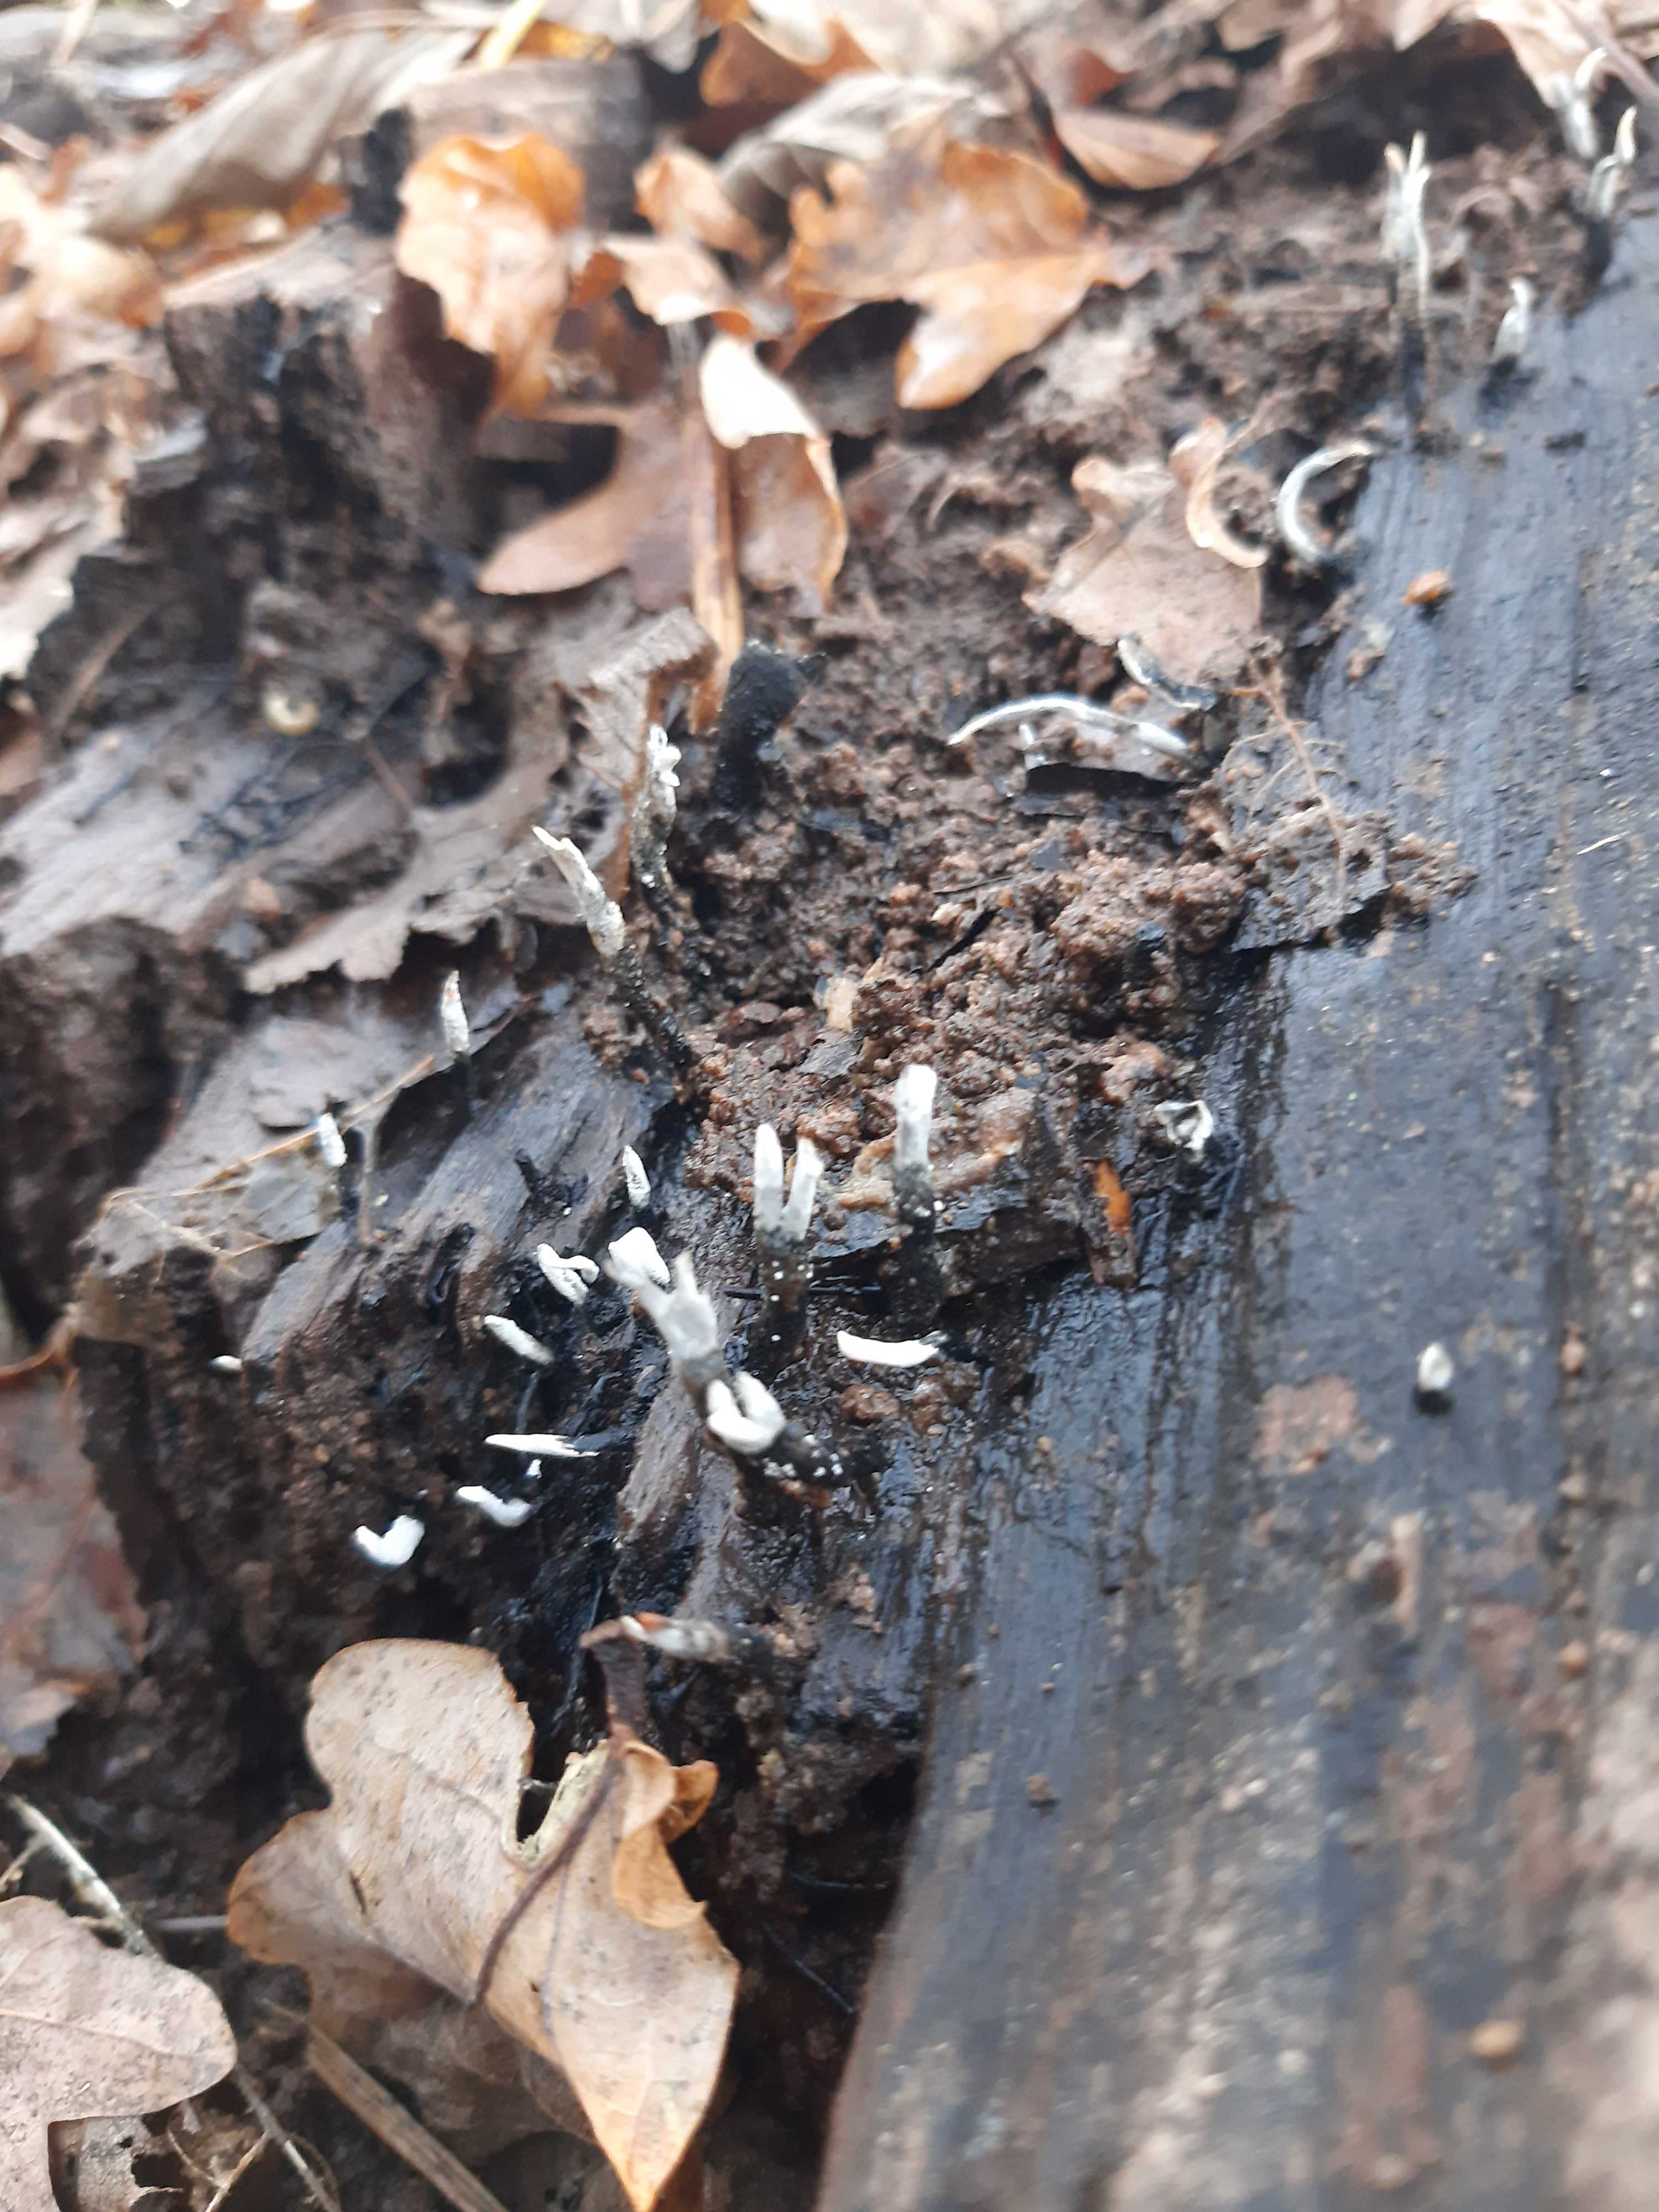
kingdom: Fungi
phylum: Ascomycota
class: Sordariomycetes
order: Xylariales
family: Xylariaceae
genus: Xylaria
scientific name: Xylaria hypoxylon
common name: grenet stødsvamp
